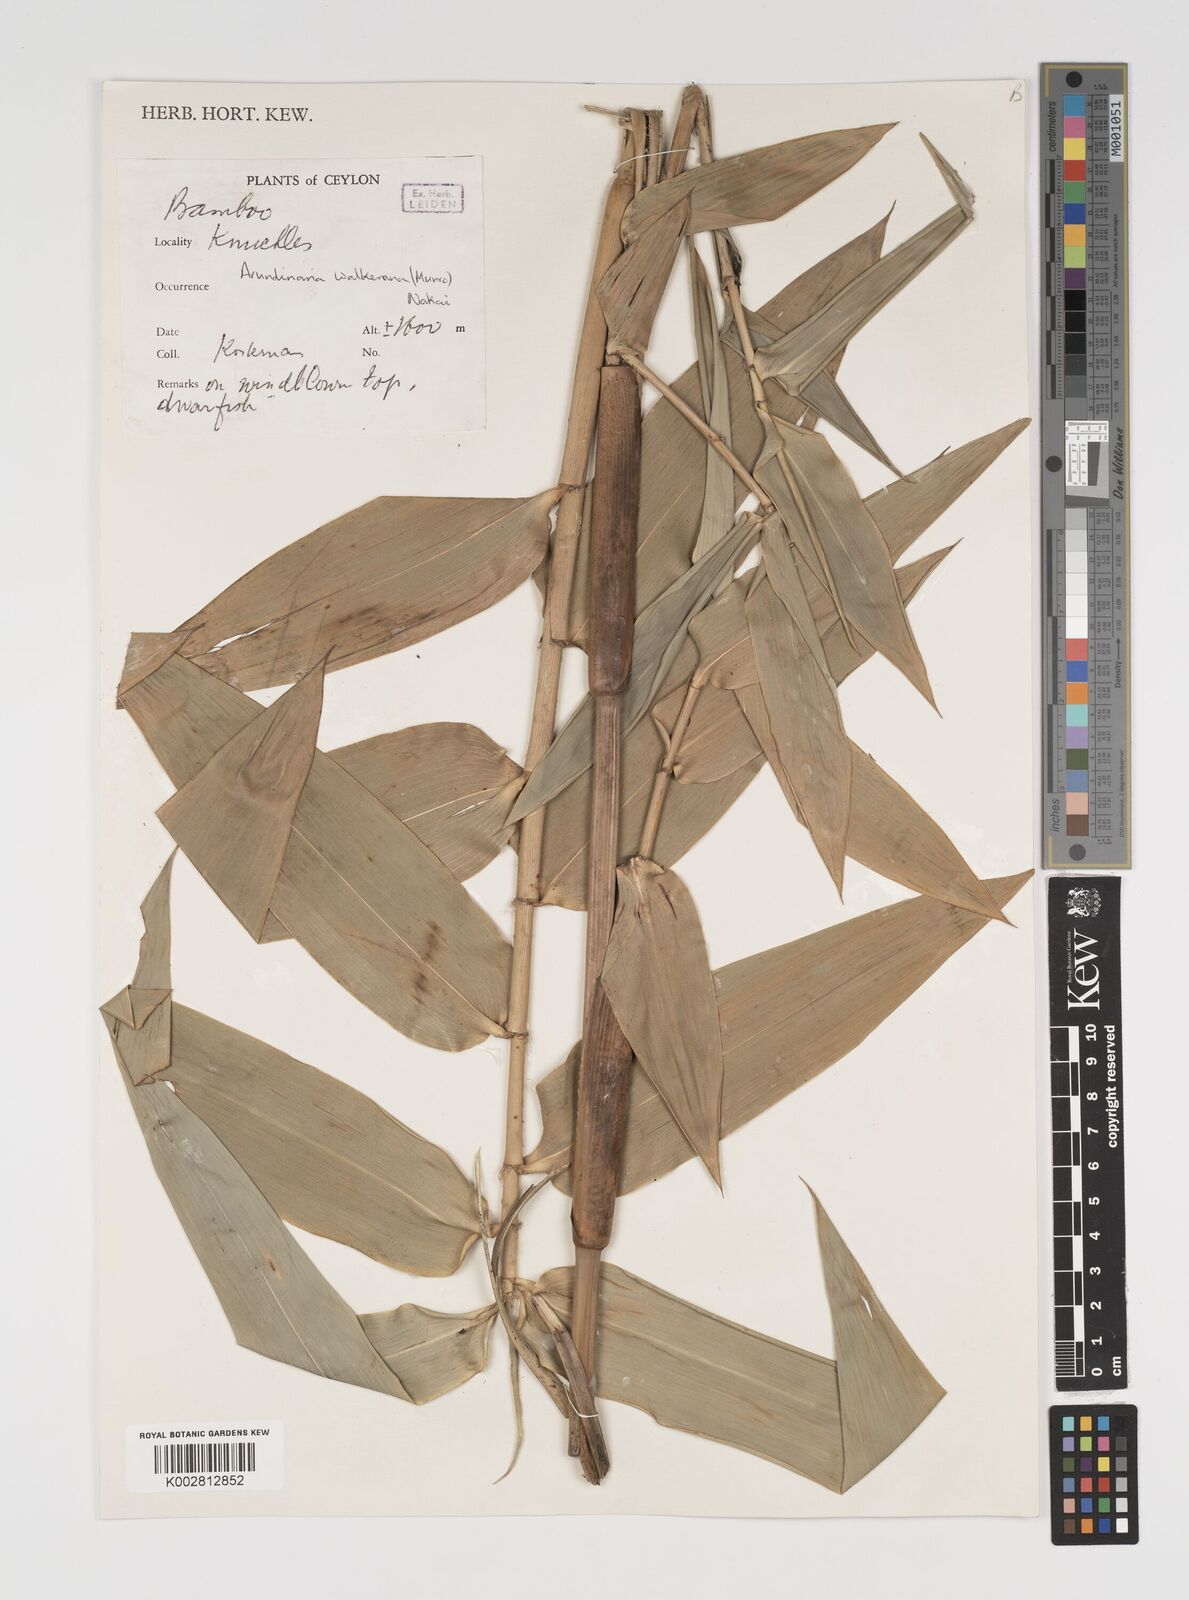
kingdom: Plantae
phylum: Tracheophyta
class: Liliopsida
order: Poales
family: Poaceae
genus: Kuruna
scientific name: Kuruna walkeriana
